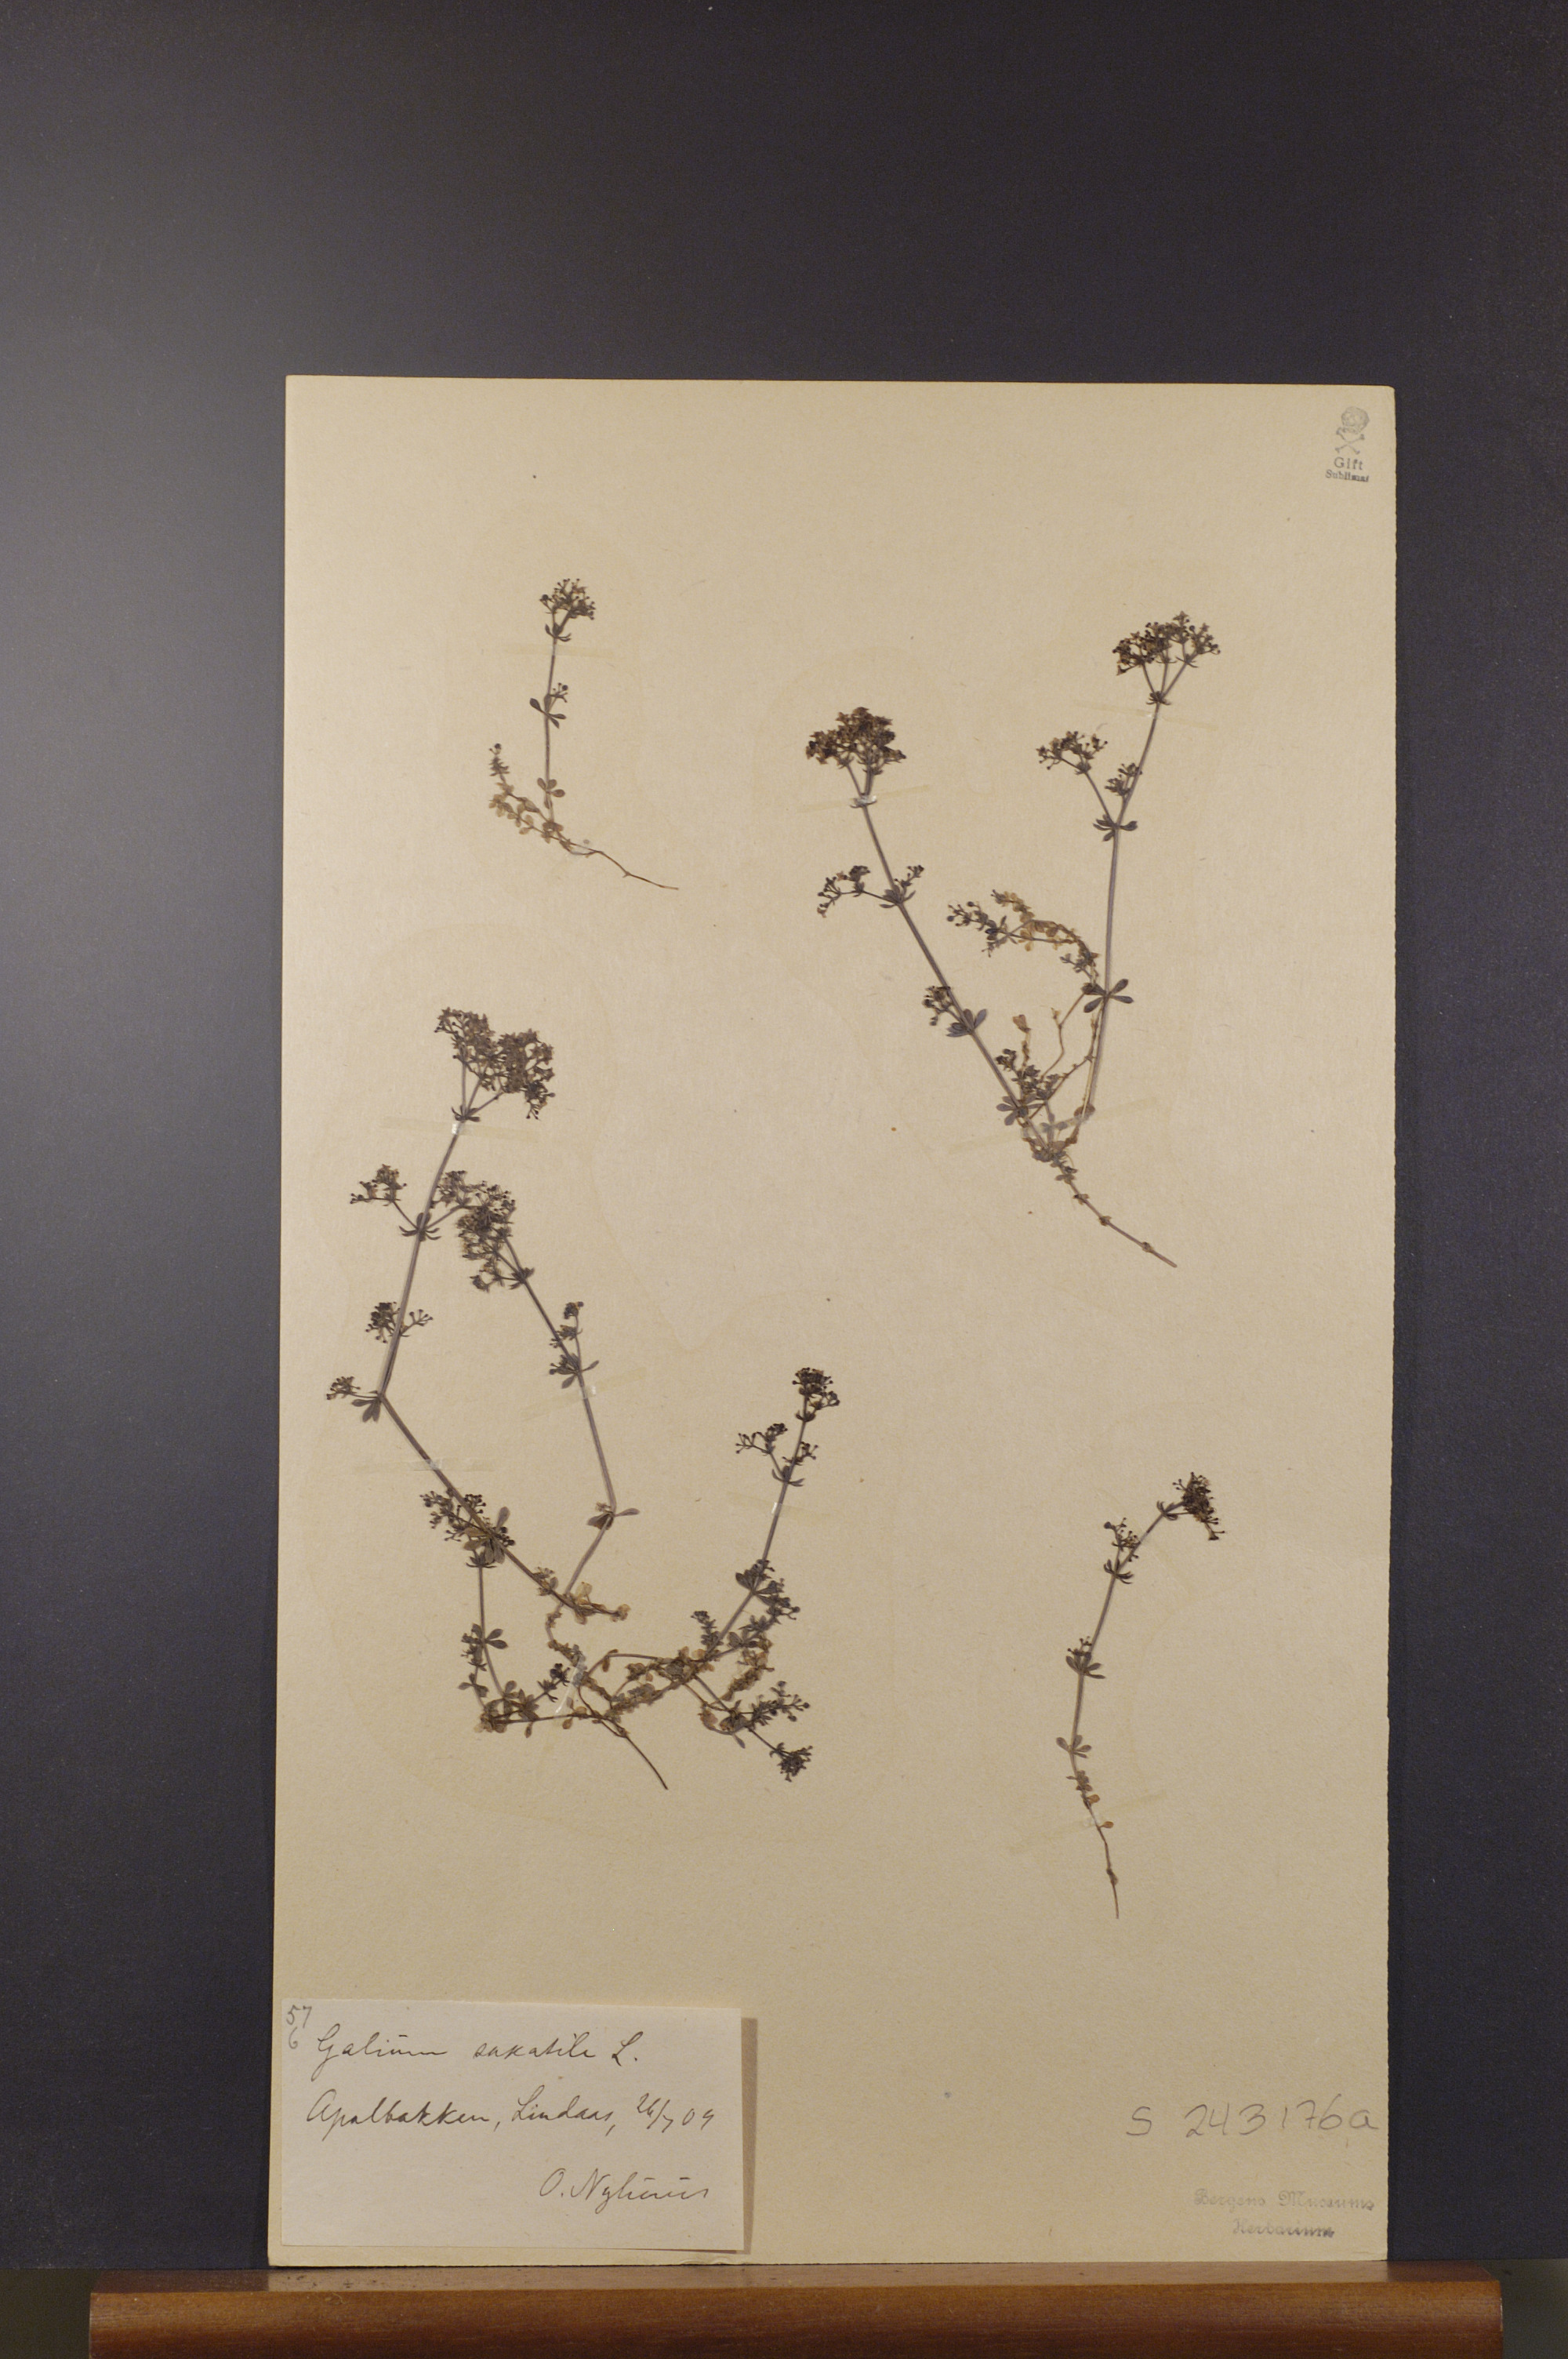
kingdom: Plantae
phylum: Tracheophyta
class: Magnoliopsida
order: Gentianales
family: Rubiaceae
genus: Galium
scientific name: Galium saxatile
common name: Heath bedstraw
